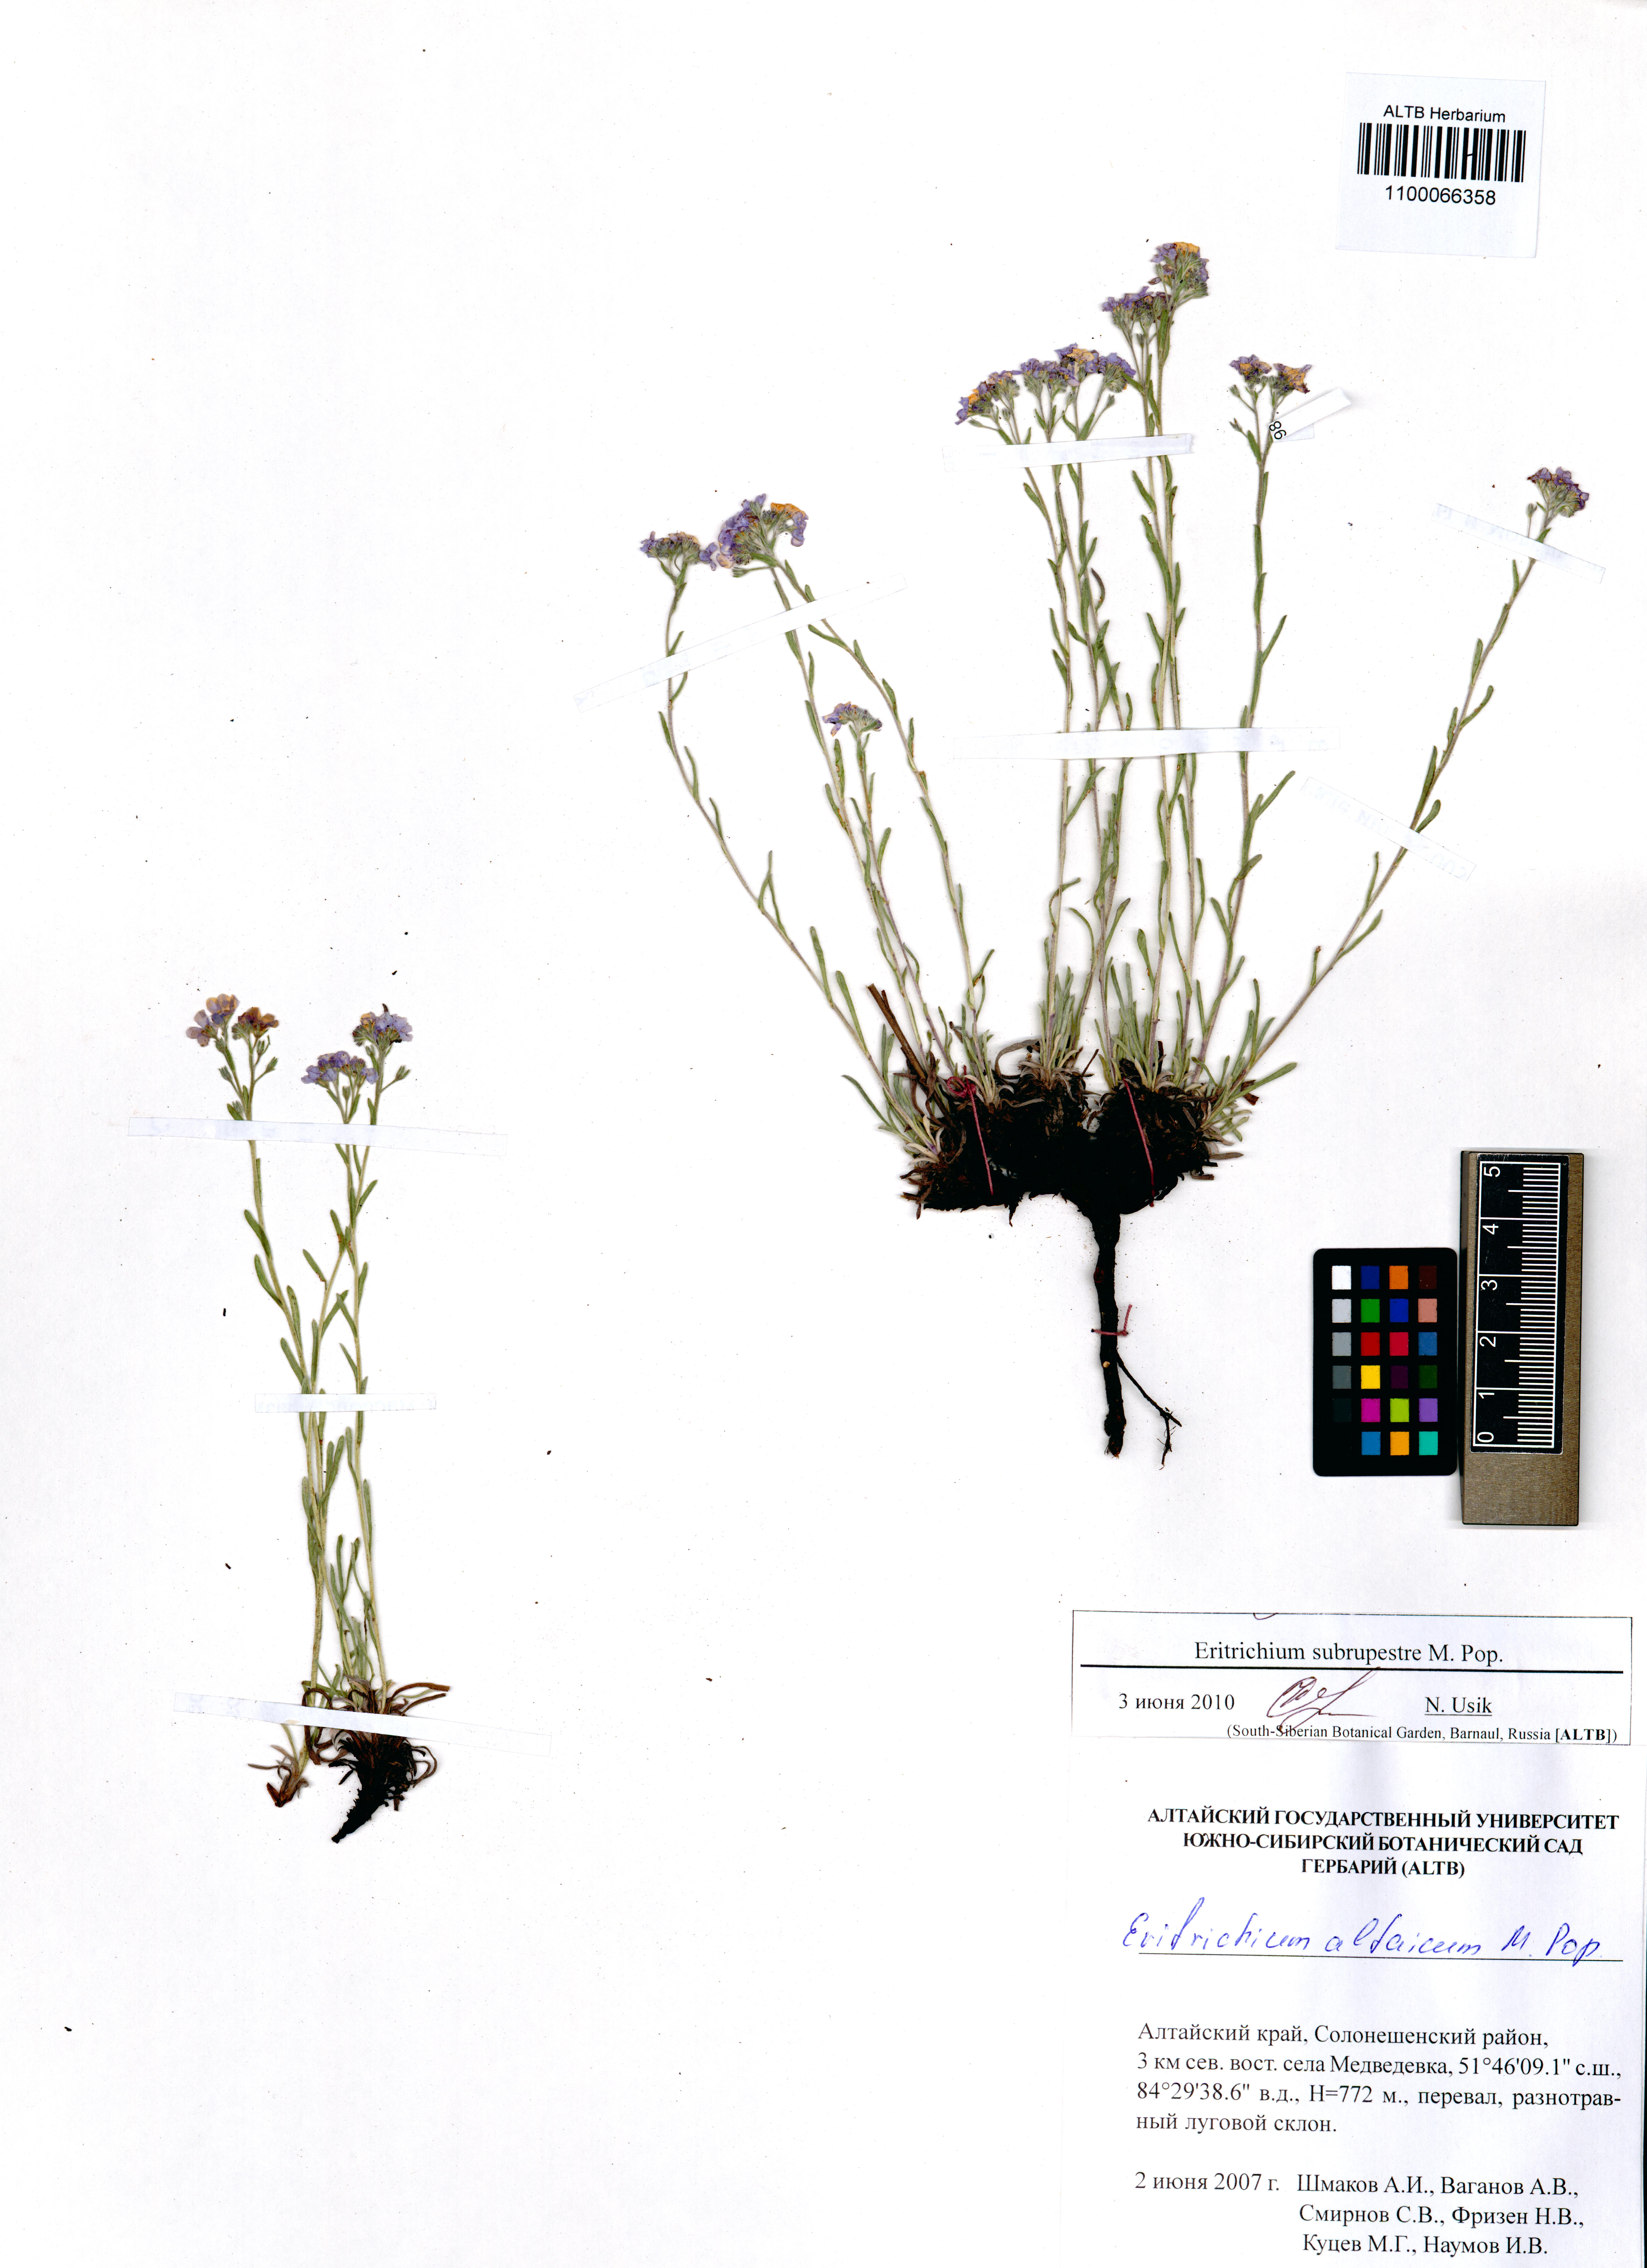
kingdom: Plantae
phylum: Tracheophyta
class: Magnoliopsida
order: Boraginales
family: Boraginaceae
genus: Eritrichium
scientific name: Eritrichium pauciflorum
